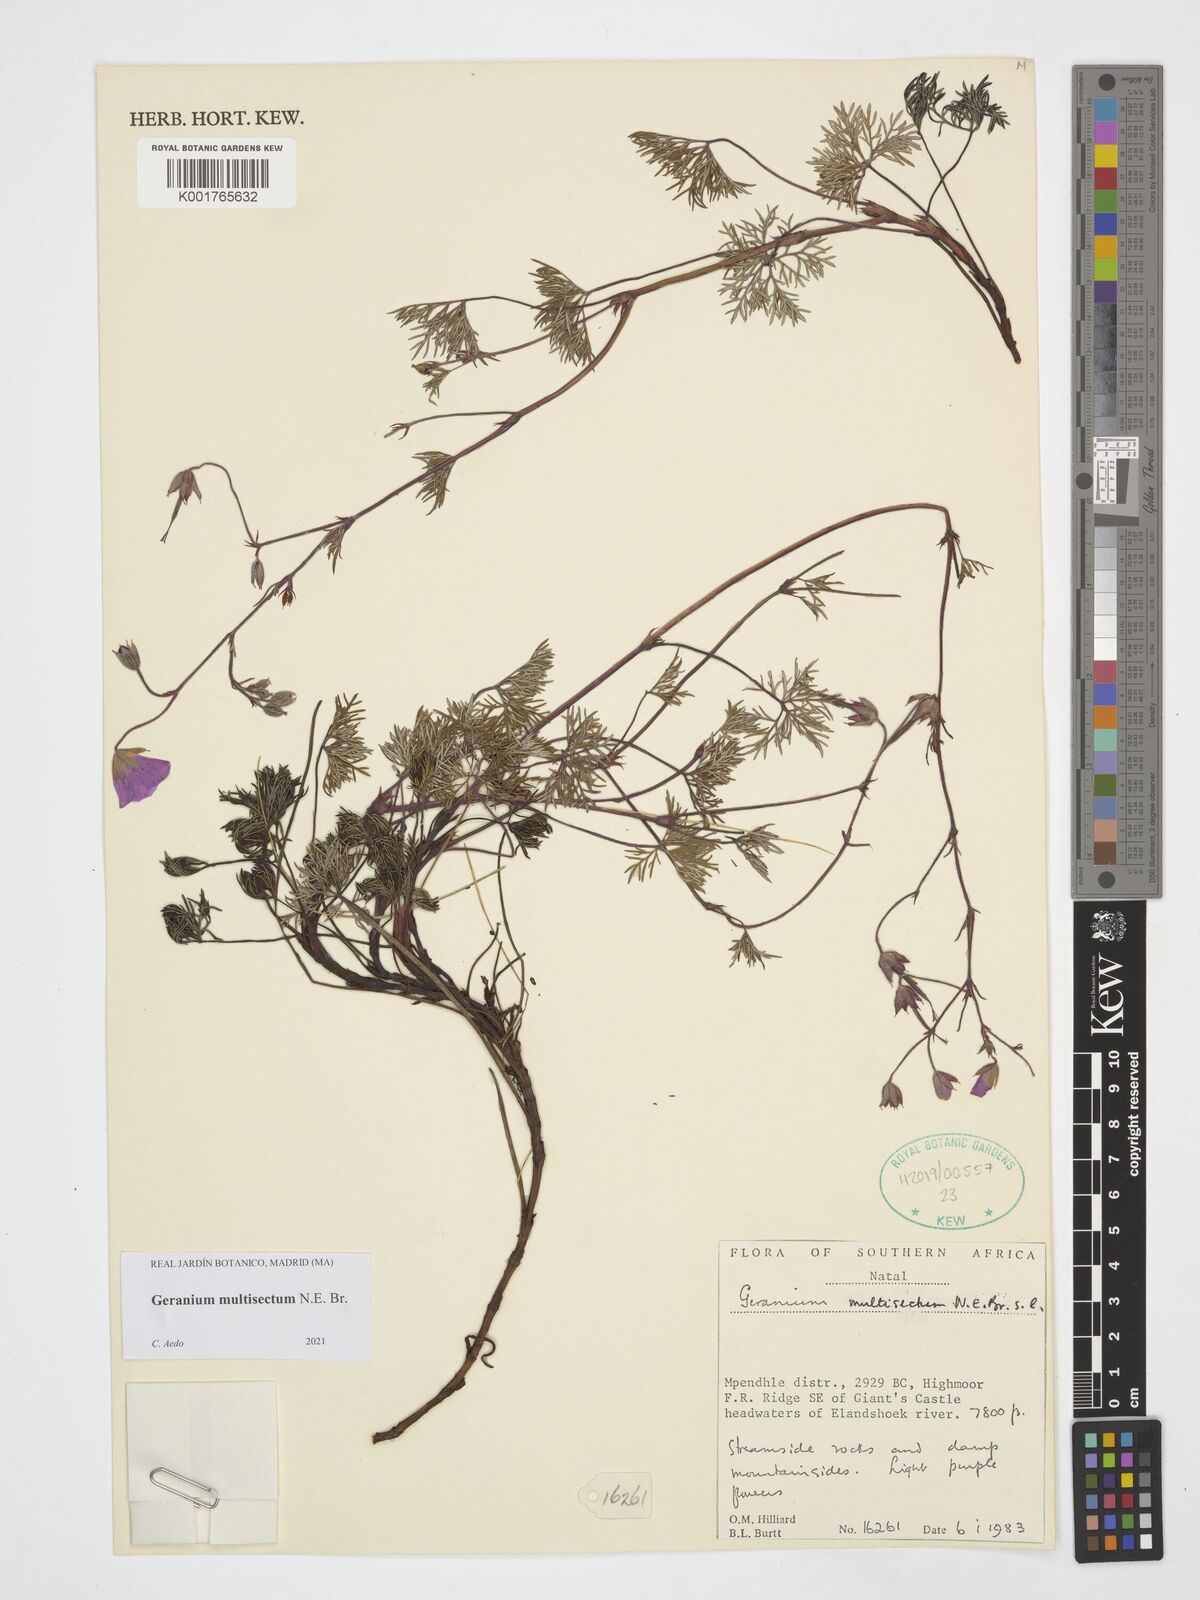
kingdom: Plantae
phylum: Tracheophyta
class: Magnoliopsida
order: Geraniales
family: Geraniaceae
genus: Geranium
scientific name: Geranium multisectum
